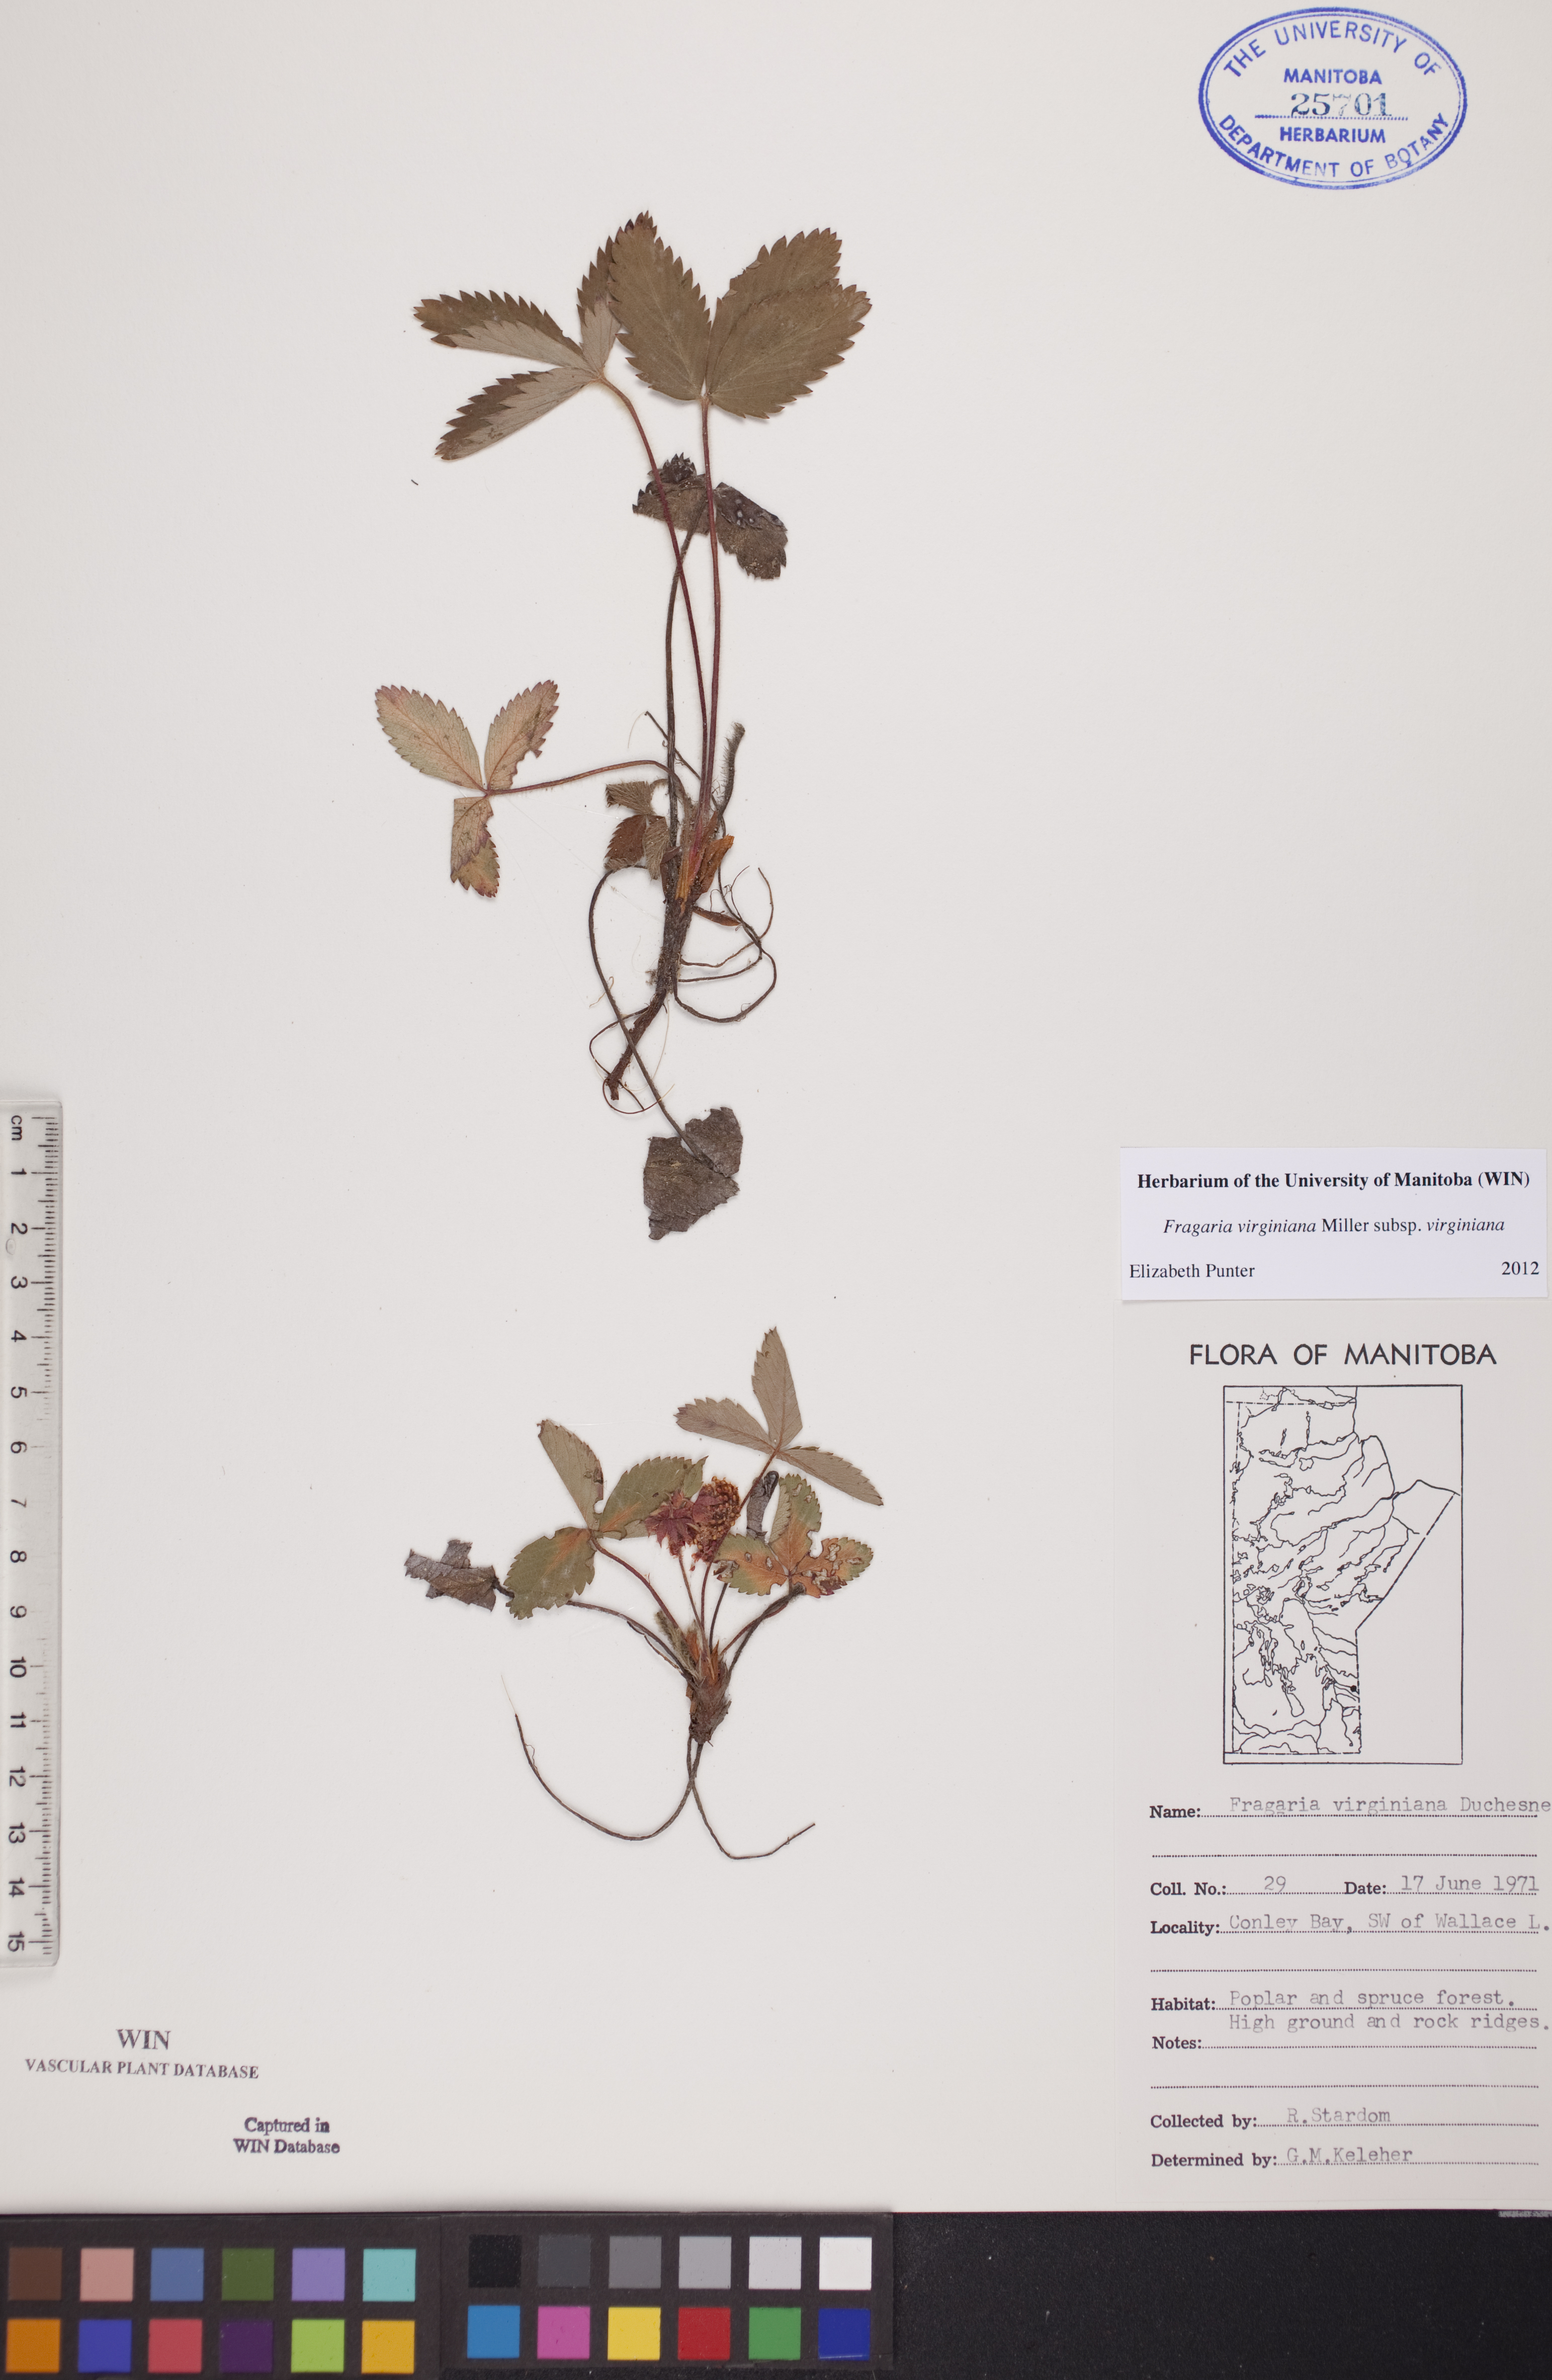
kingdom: Plantae
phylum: Tracheophyta
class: Magnoliopsida
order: Rosales
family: Rosaceae
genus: Fragaria
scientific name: Fragaria virginiana
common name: Thickleaved wild strawberry
